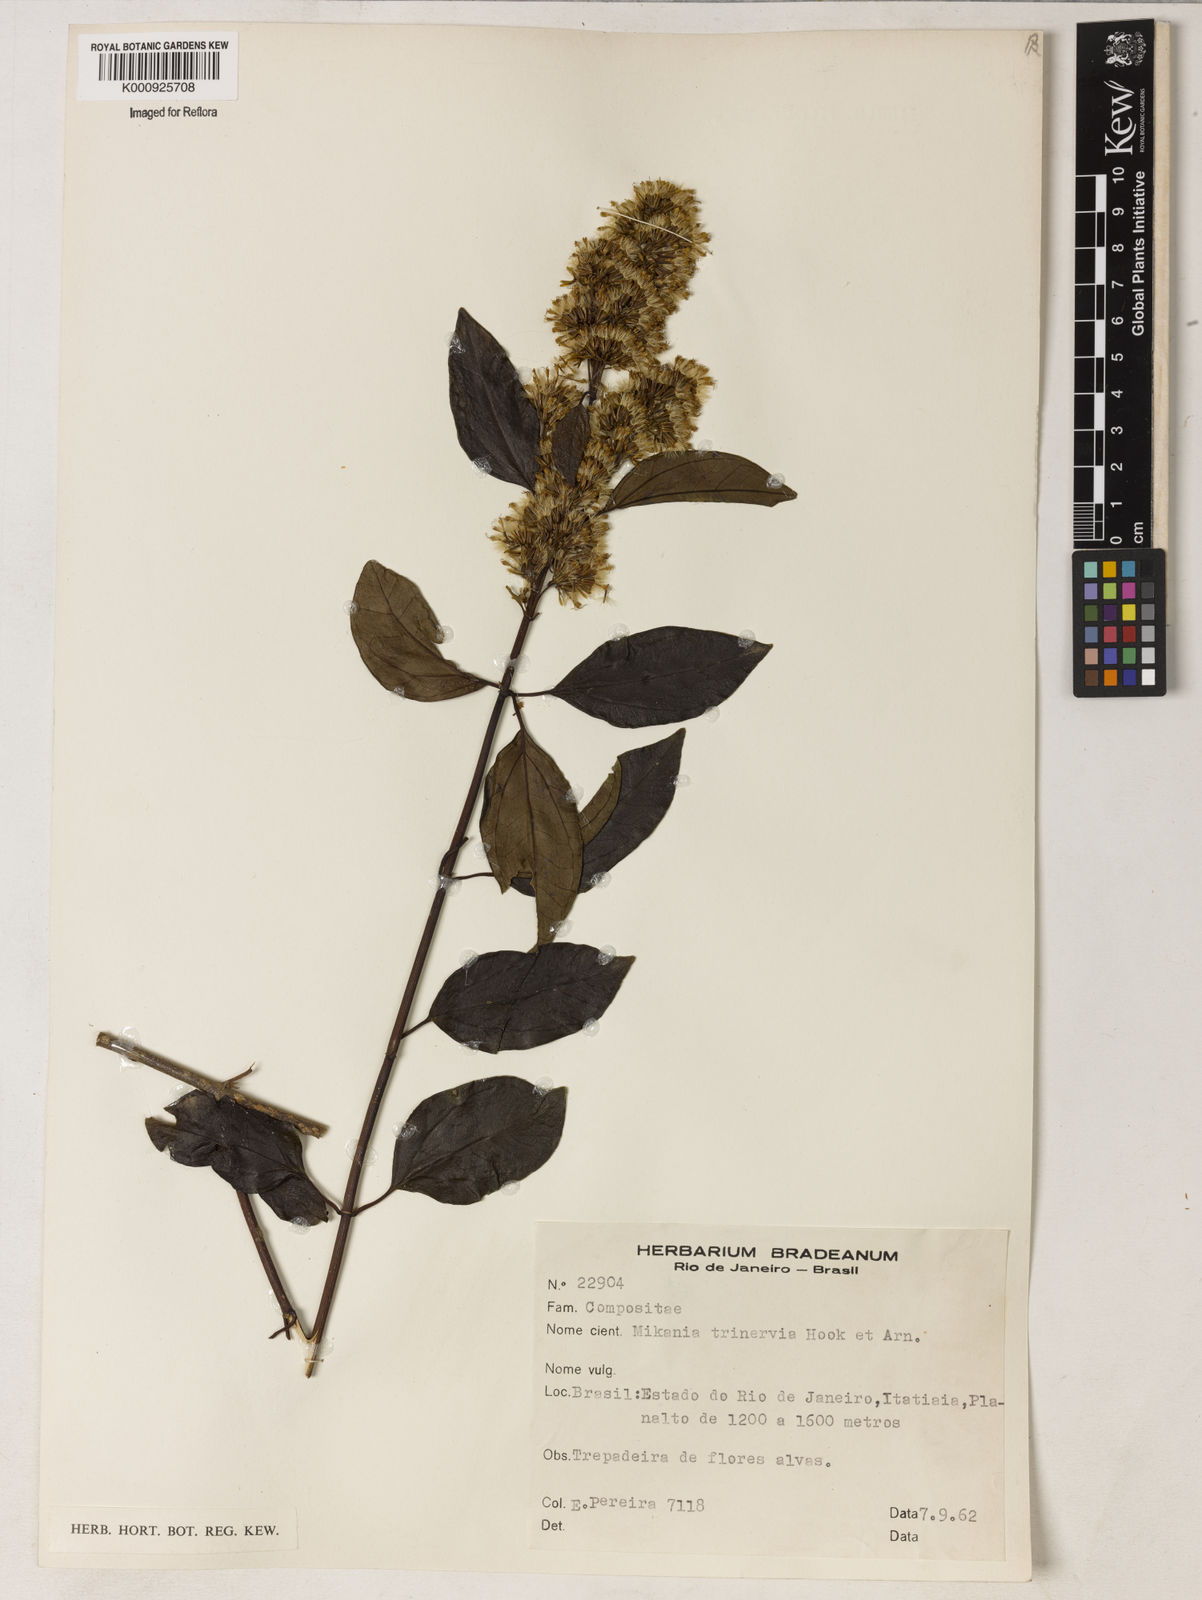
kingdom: Plantae
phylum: Tracheophyta
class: Magnoliopsida
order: Asterales
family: Asteraceae
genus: Mikania
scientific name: Mikania trinervis
